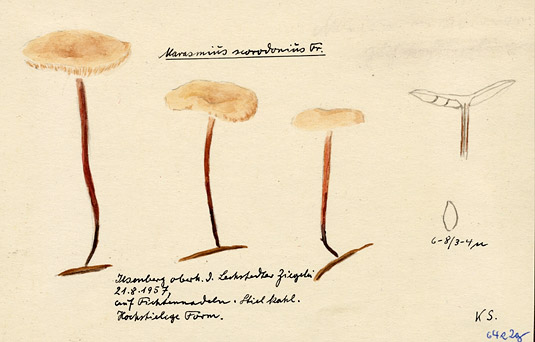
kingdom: Fungi
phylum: Basidiomycota
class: Agaricomycetes
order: Agaricales
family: Omphalotaceae
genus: Mycetinis
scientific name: Mycetinis scorodonius
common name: Vampires bane
